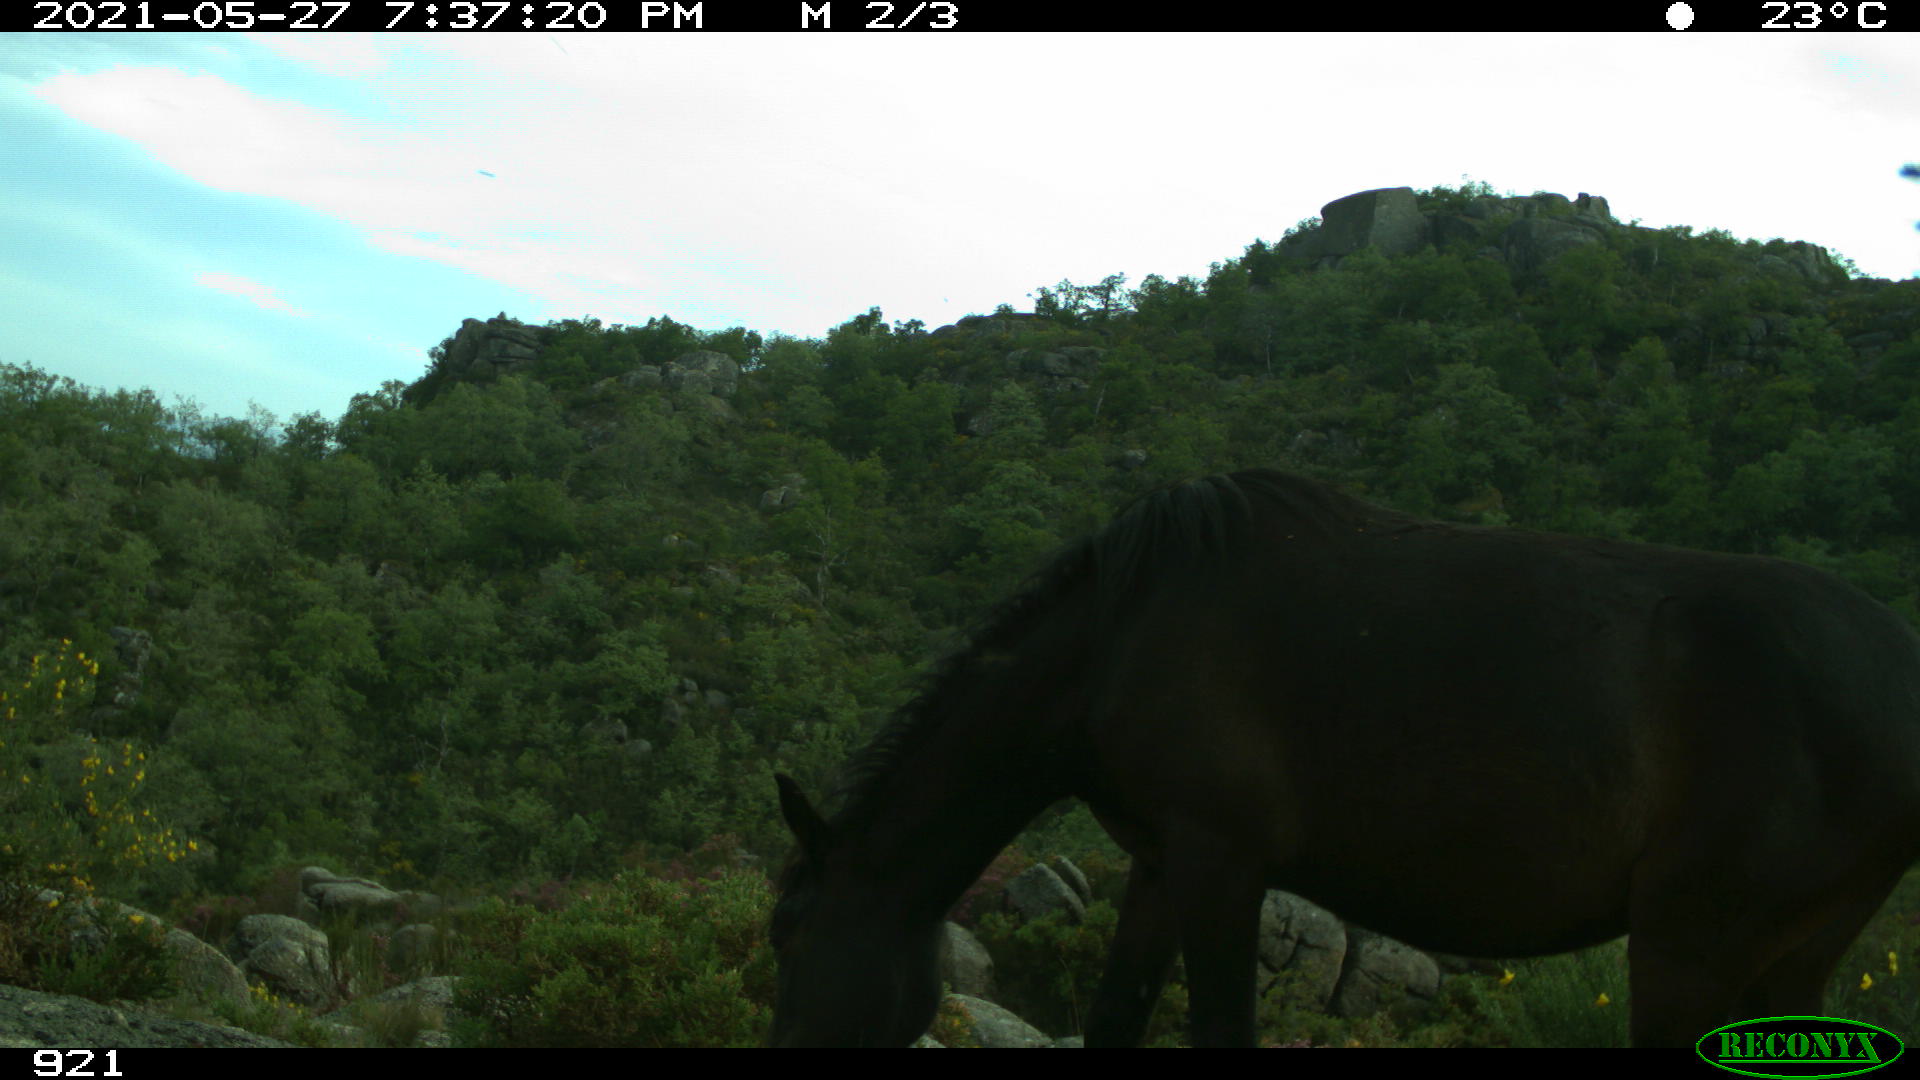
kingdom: Animalia
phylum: Chordata
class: Mammalia
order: Perissodactyla
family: Equidae
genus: Equus
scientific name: Equus caballus
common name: Horse
